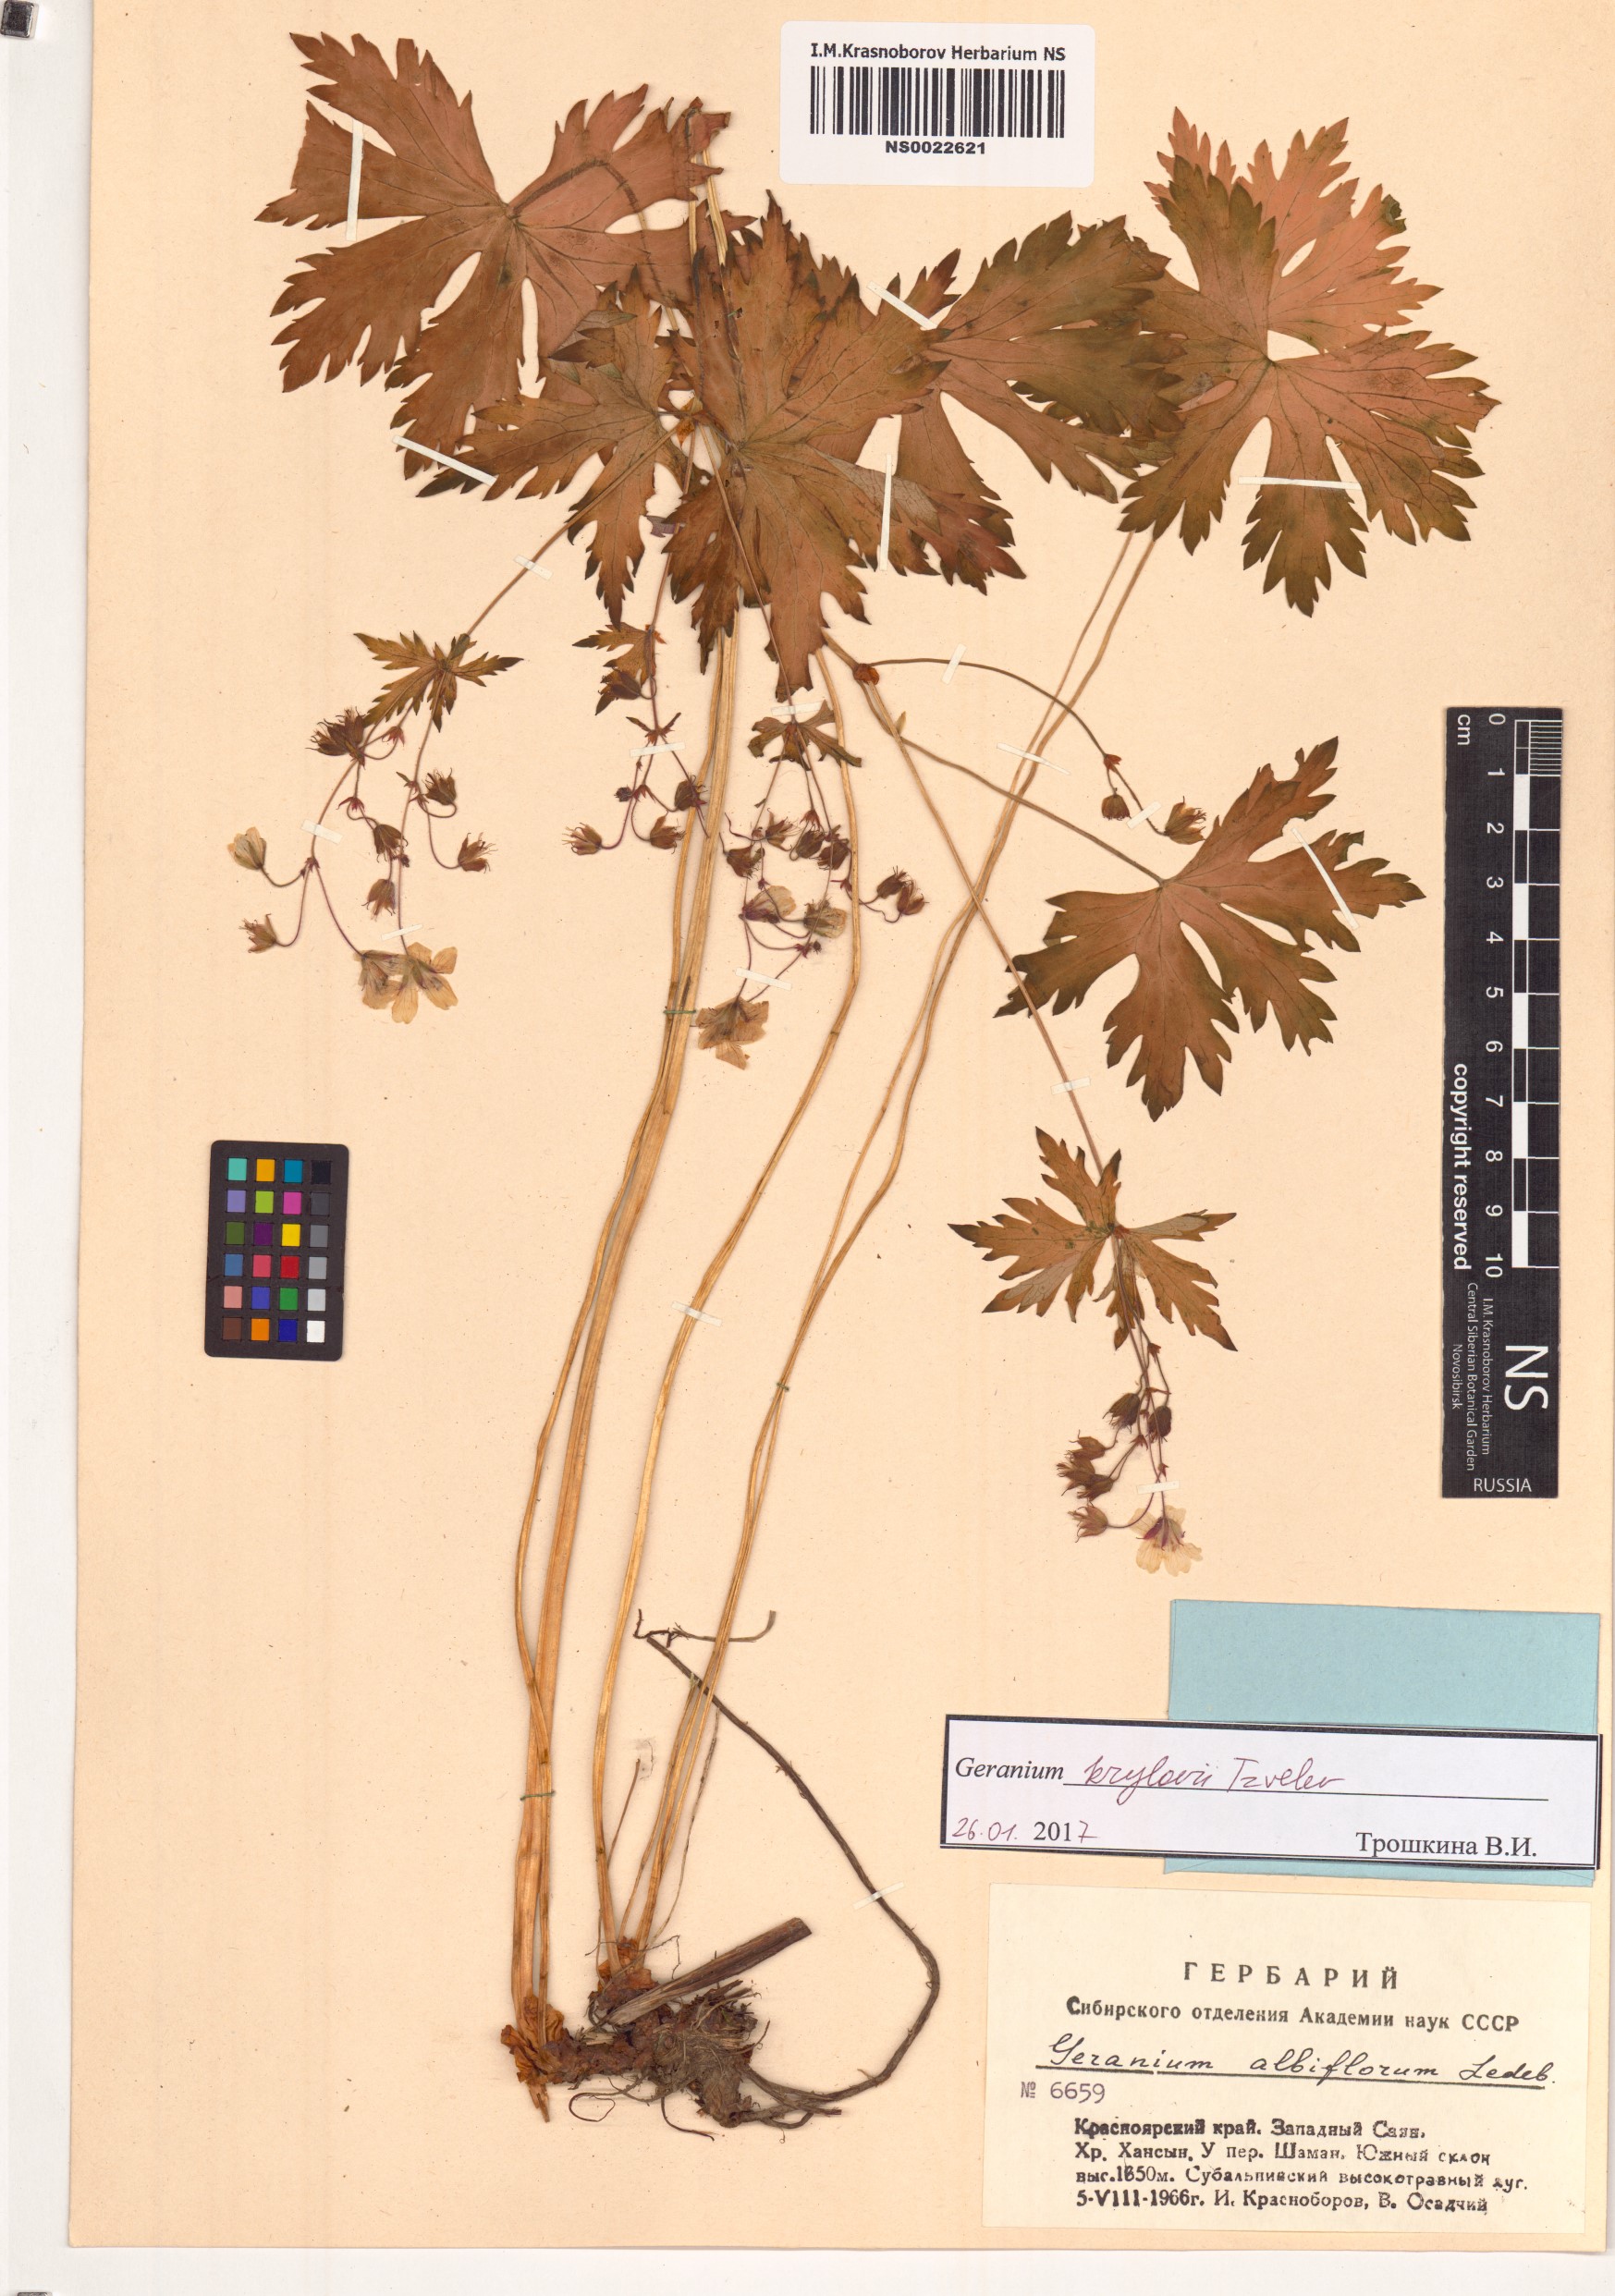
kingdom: Plantae
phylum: Tracheophyta
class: Magnoliopsida
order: Geraniales
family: Geraniaceae
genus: Geranium
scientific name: Geranium sylvaticum
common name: Wood crane's-bill
